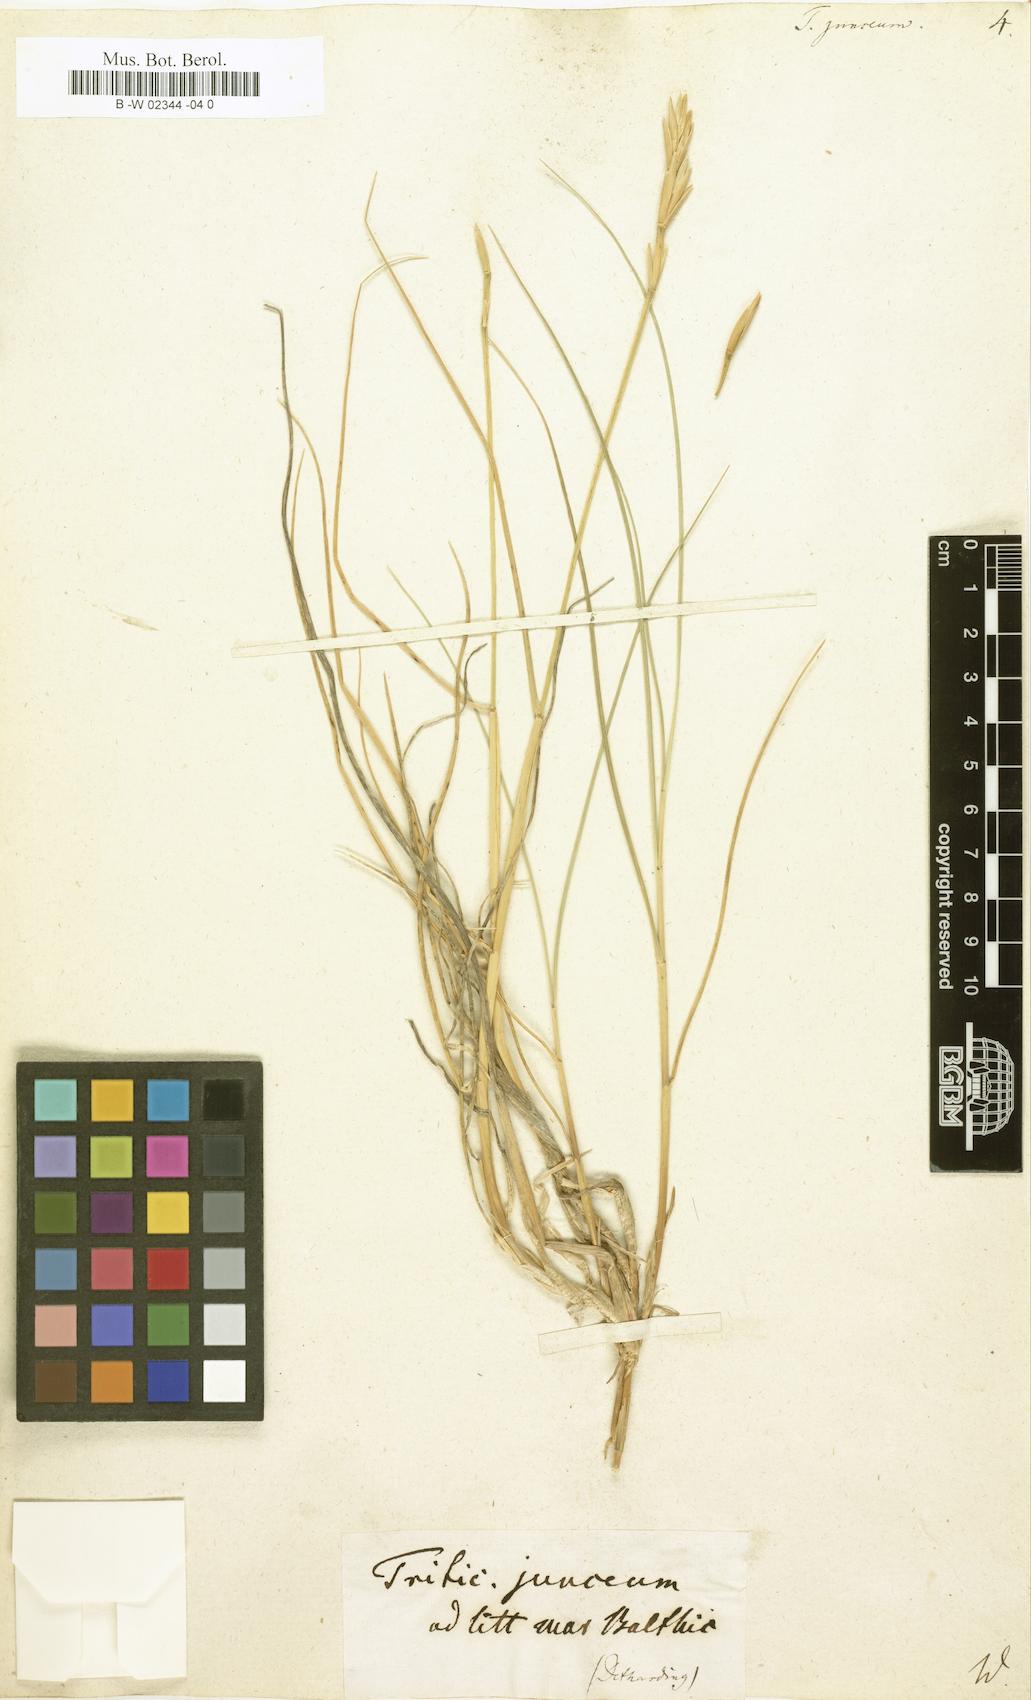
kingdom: Plantae
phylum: Tracheophyta
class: Liliopsida
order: Poales
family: Poaceae
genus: Thinopyrum
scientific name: Thinopyrum
